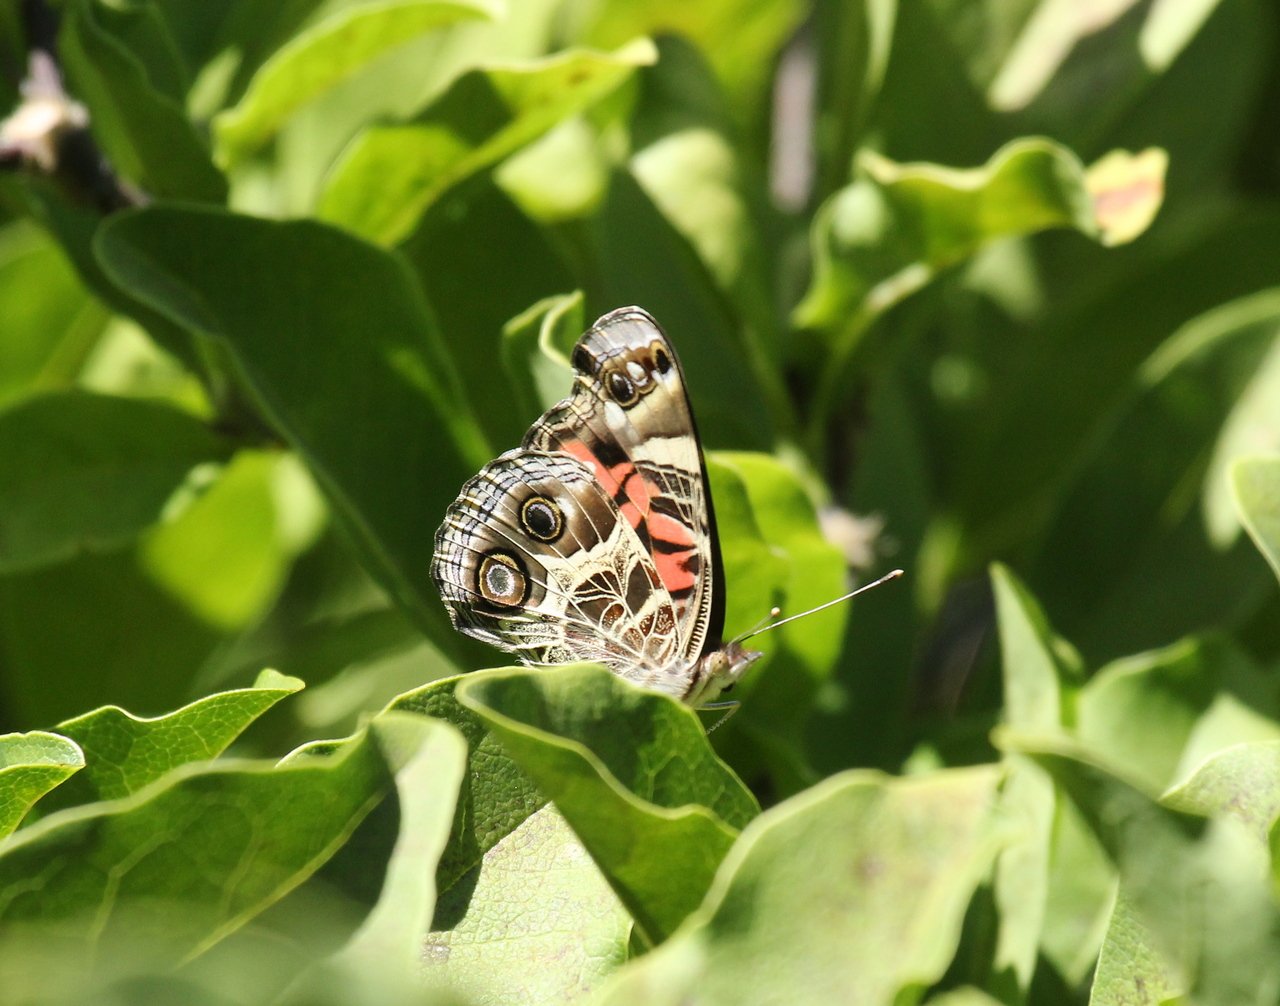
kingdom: Animalia
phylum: Arthropoda
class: Insecta
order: Lepidoptera
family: Nymphalidae
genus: Vanessa
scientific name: Vanessa virginiensis
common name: American Lady
